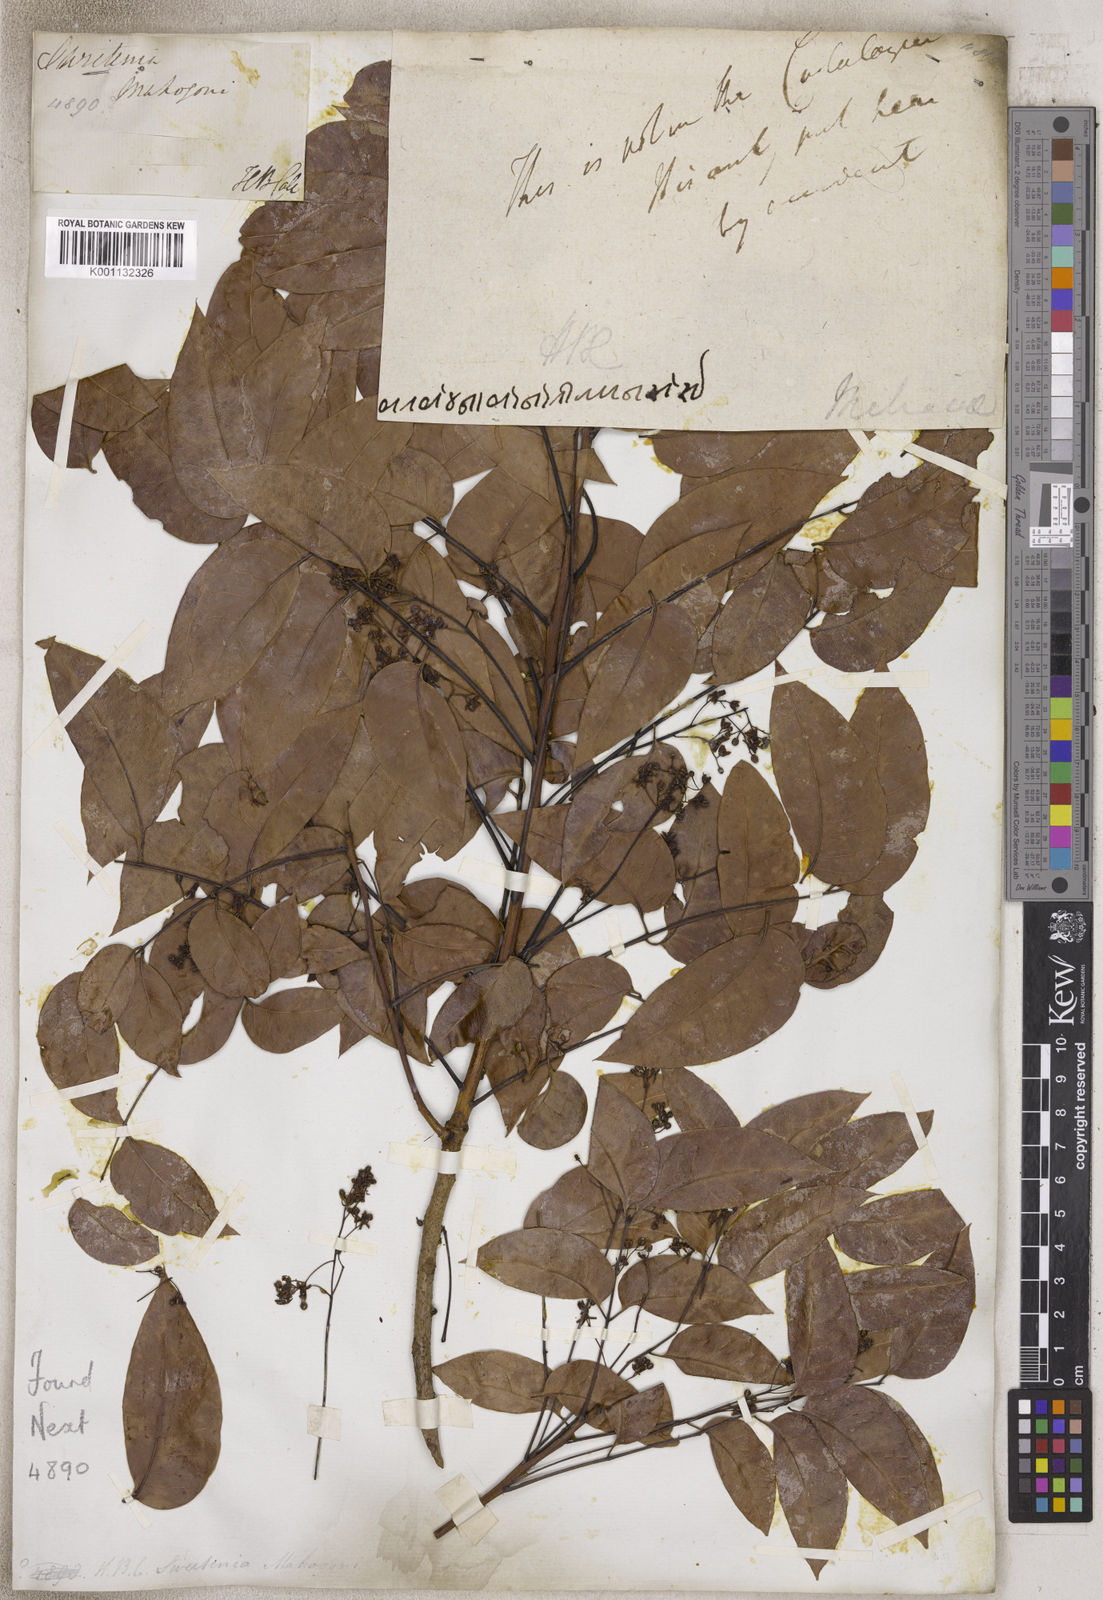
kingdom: Plantae
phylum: Tracheophyta
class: Magnoliopsida
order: Sapindales
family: Meliaceae
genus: Swietenia
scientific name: Swietenia
